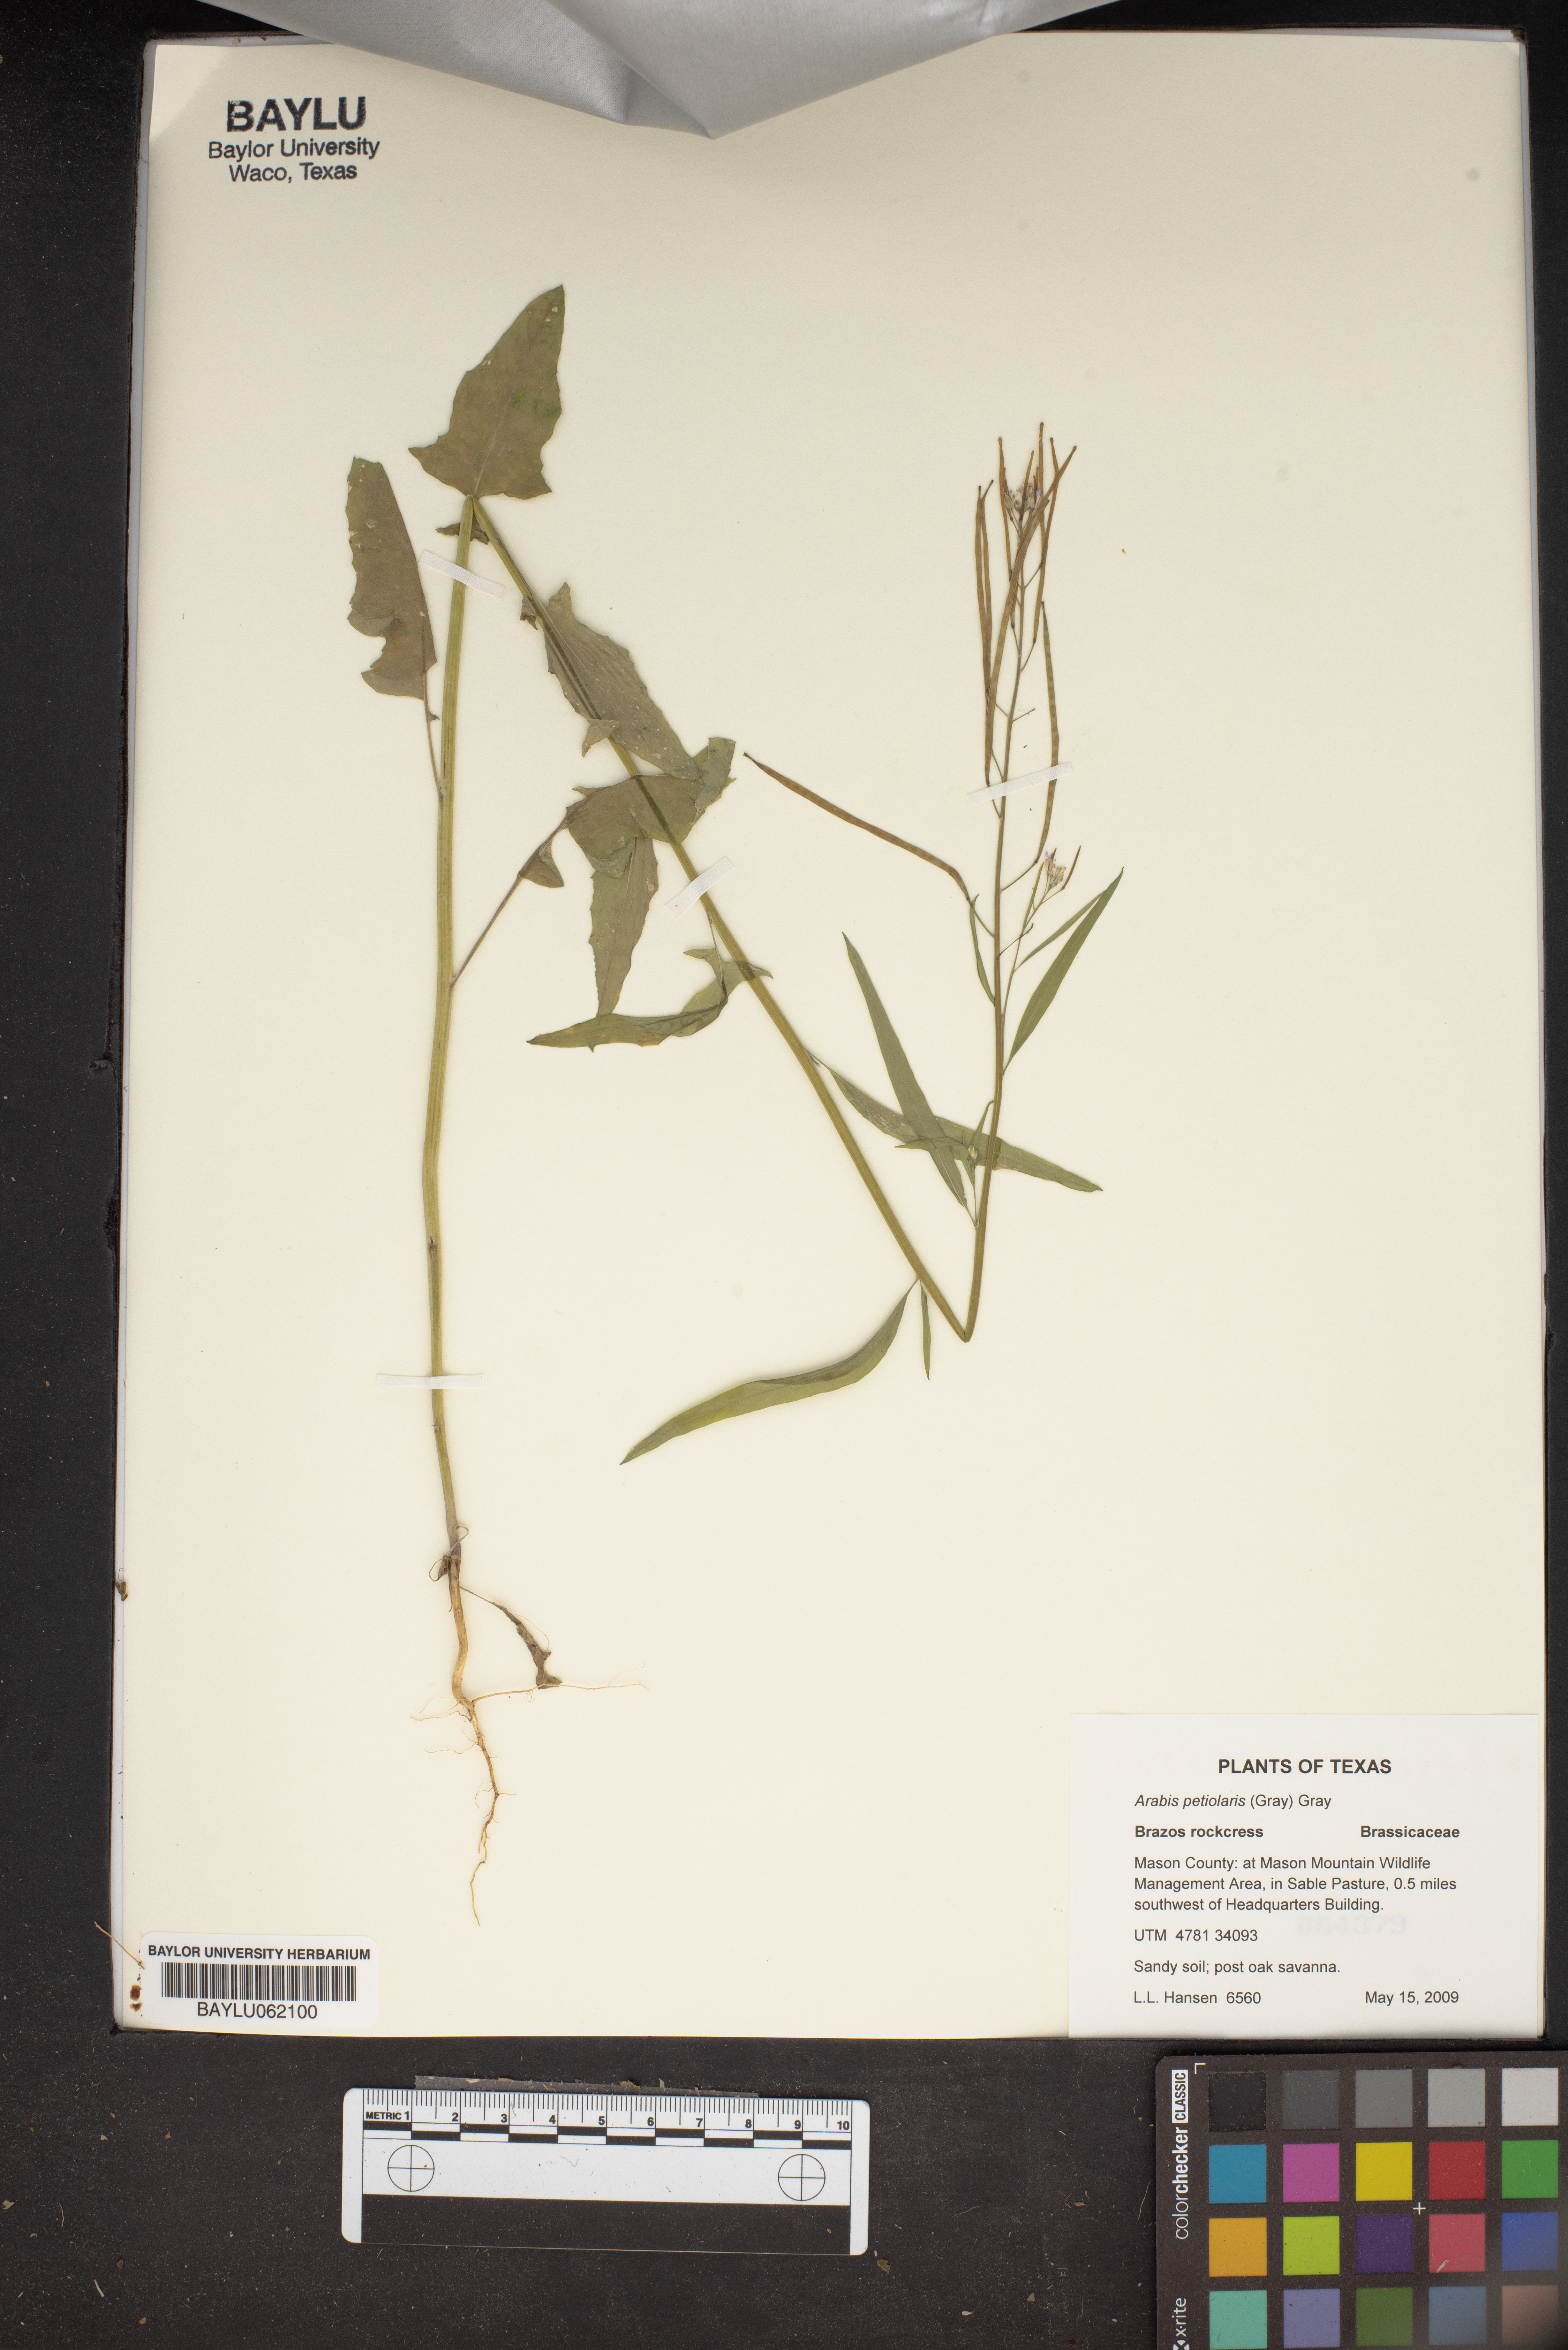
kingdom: Plantae
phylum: Tracheophyta
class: Magnoliopsida
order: Brassicales
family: Brassicaceae
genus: Streptanthus
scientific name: Streptanthus petiolaris
